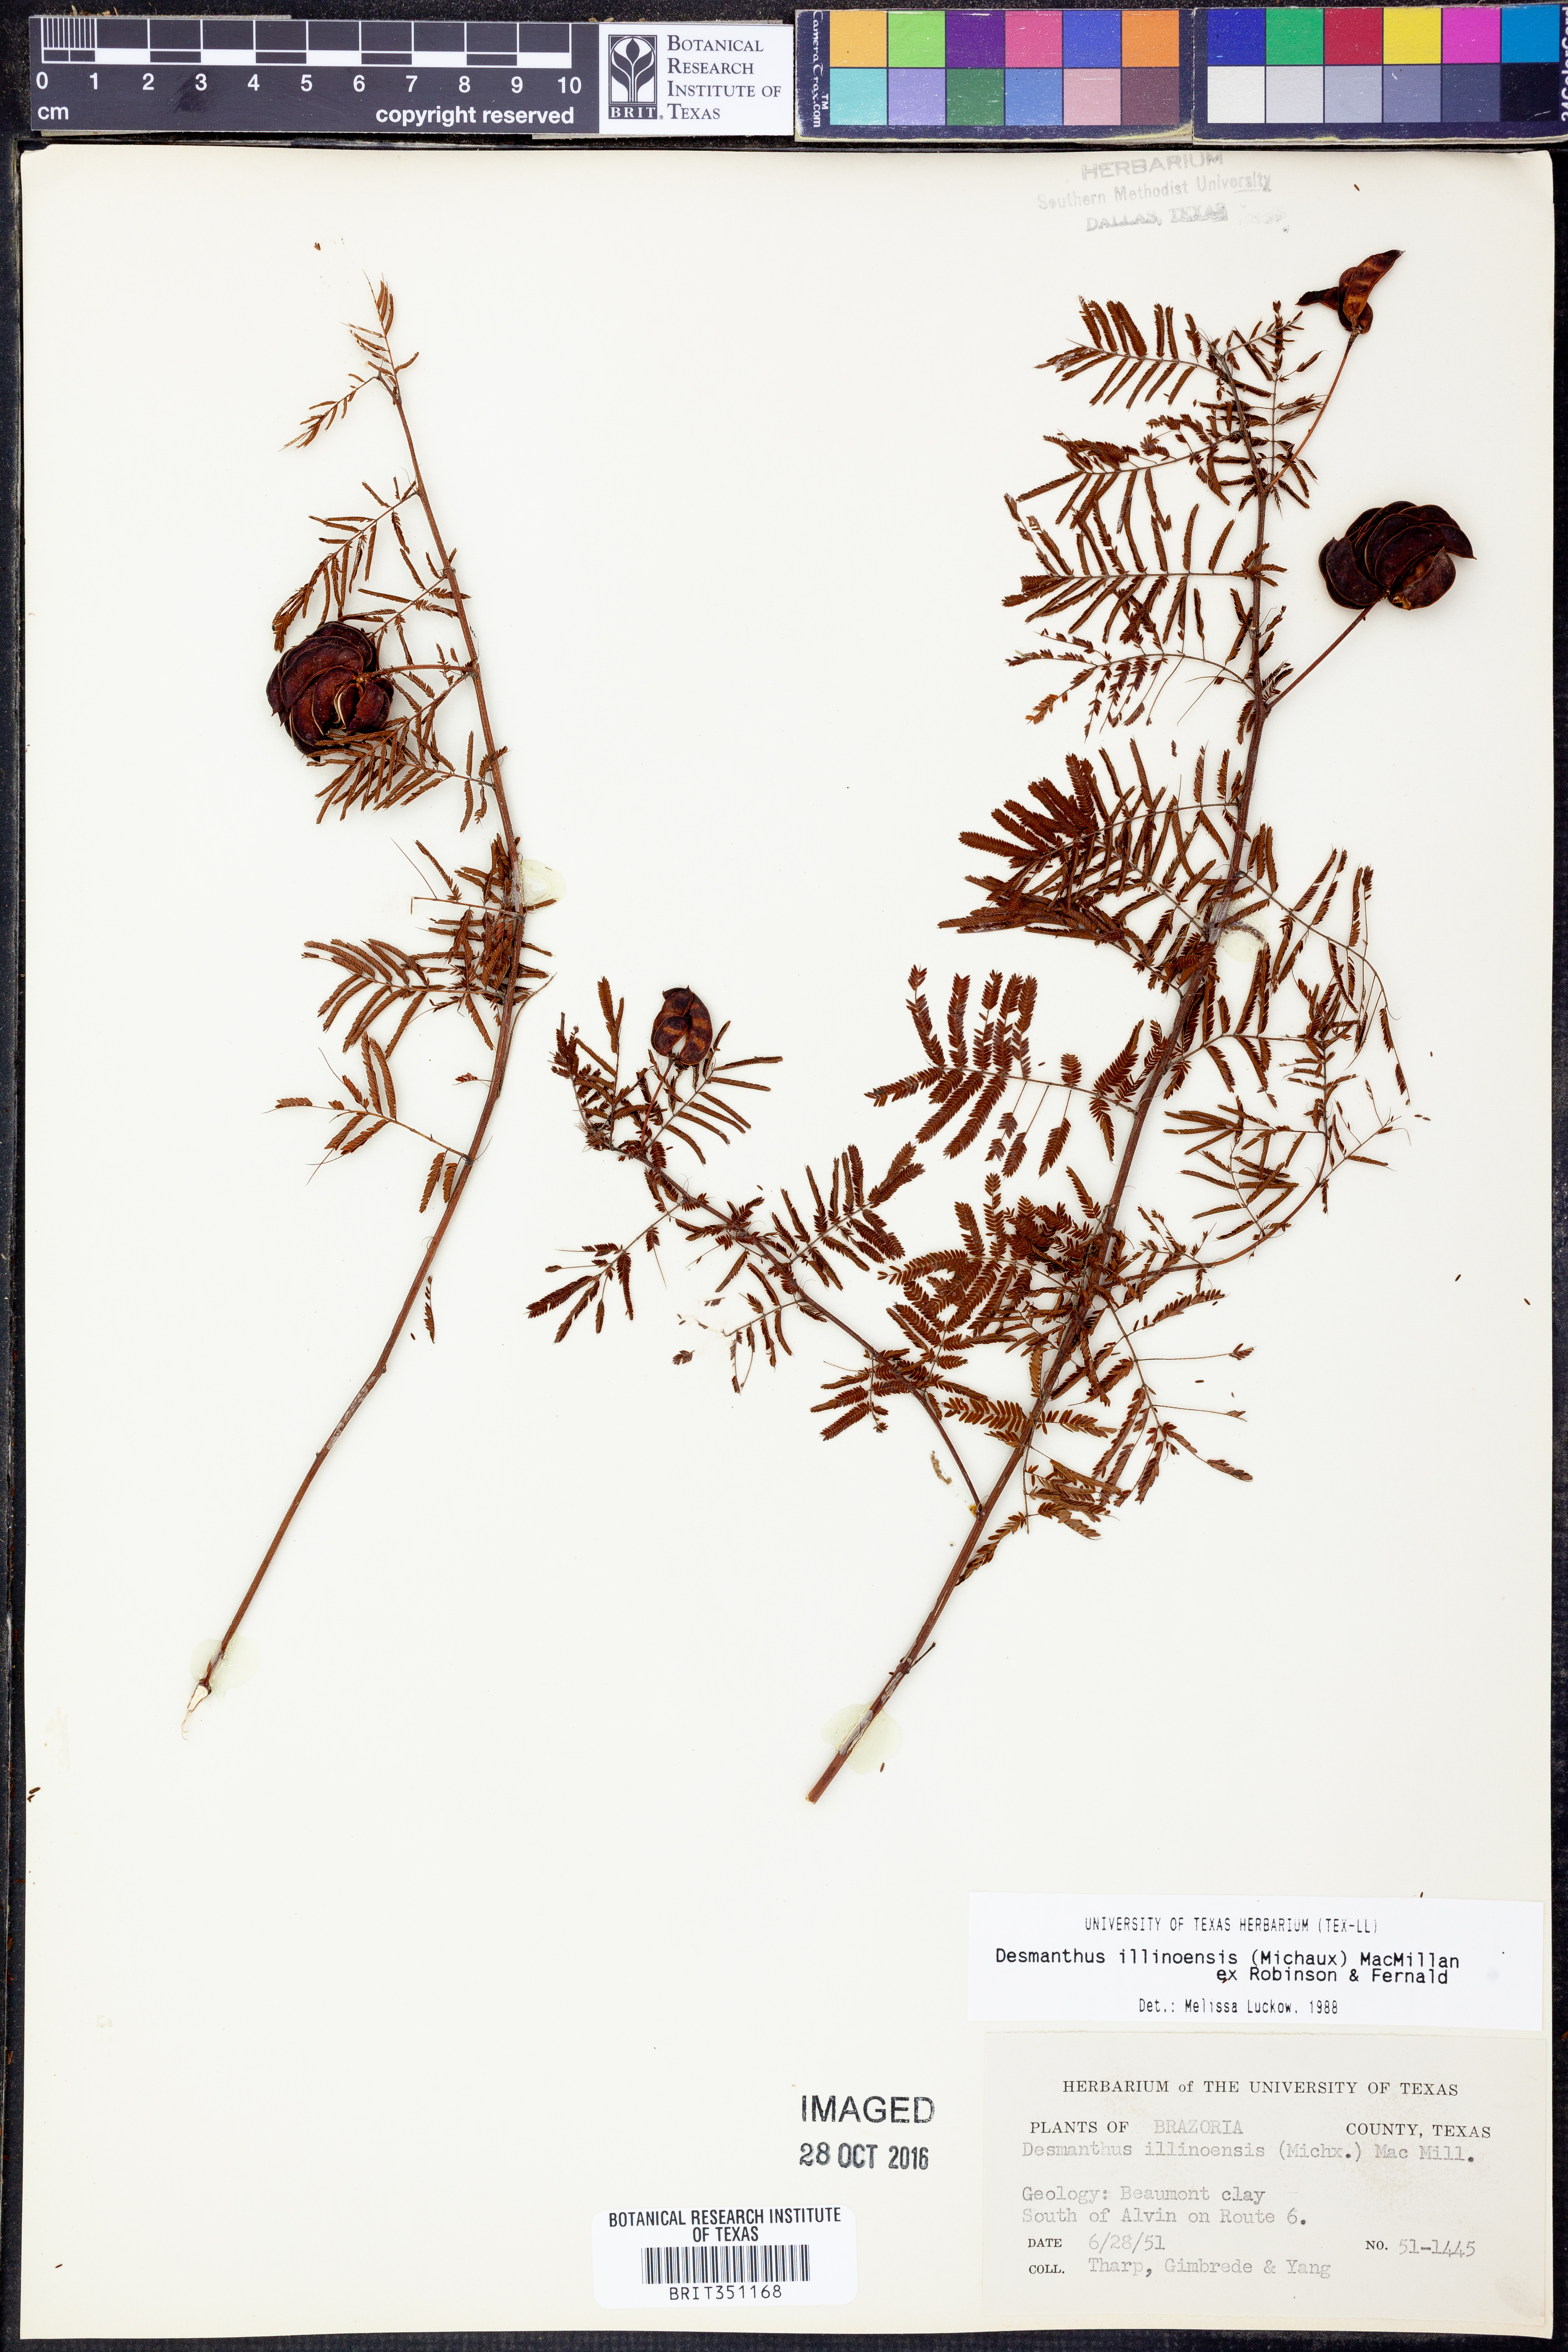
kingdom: Plantae
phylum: Tracheophyta
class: Magnoliopsida
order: Fabales
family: Fabaceae
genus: Desmanthus
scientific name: Desmanthus illinoensis
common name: Illinois bundle-flower
